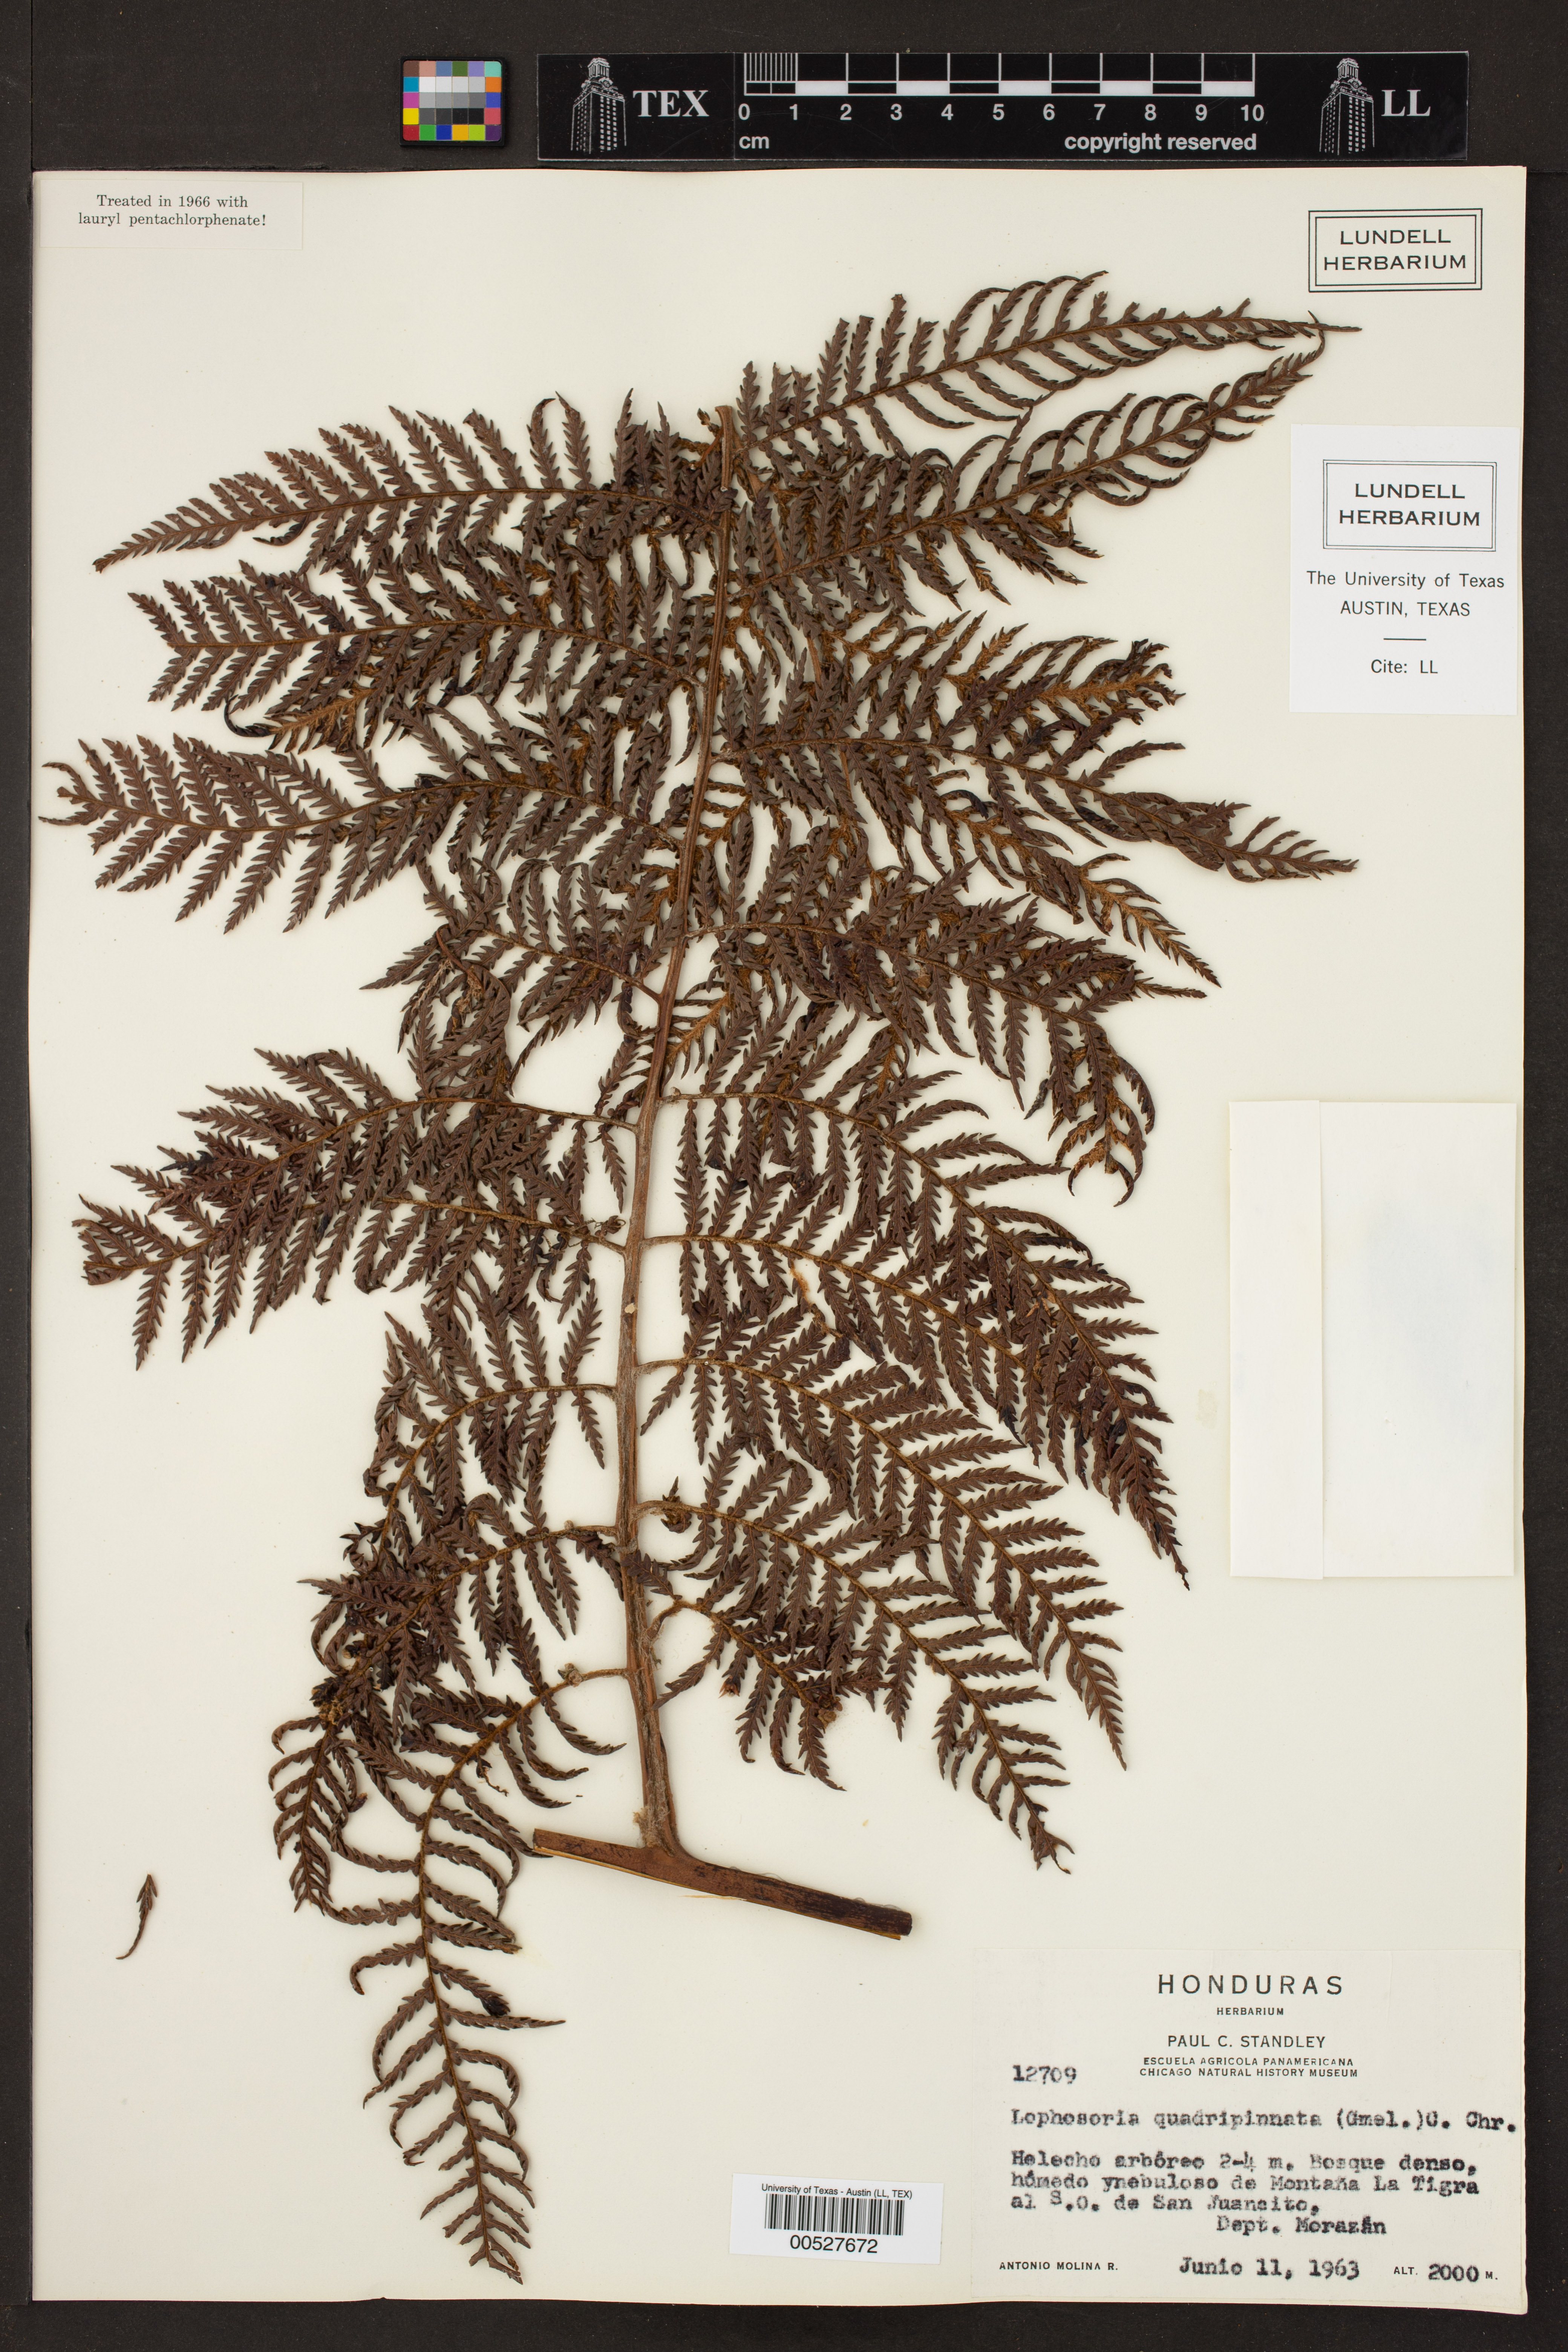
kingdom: Plantae
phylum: Tracheophyta
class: Polypodiopsida
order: Cyatheales
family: Dicksoniaceae
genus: Lophosoria
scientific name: Lophosoria quadripinnata
